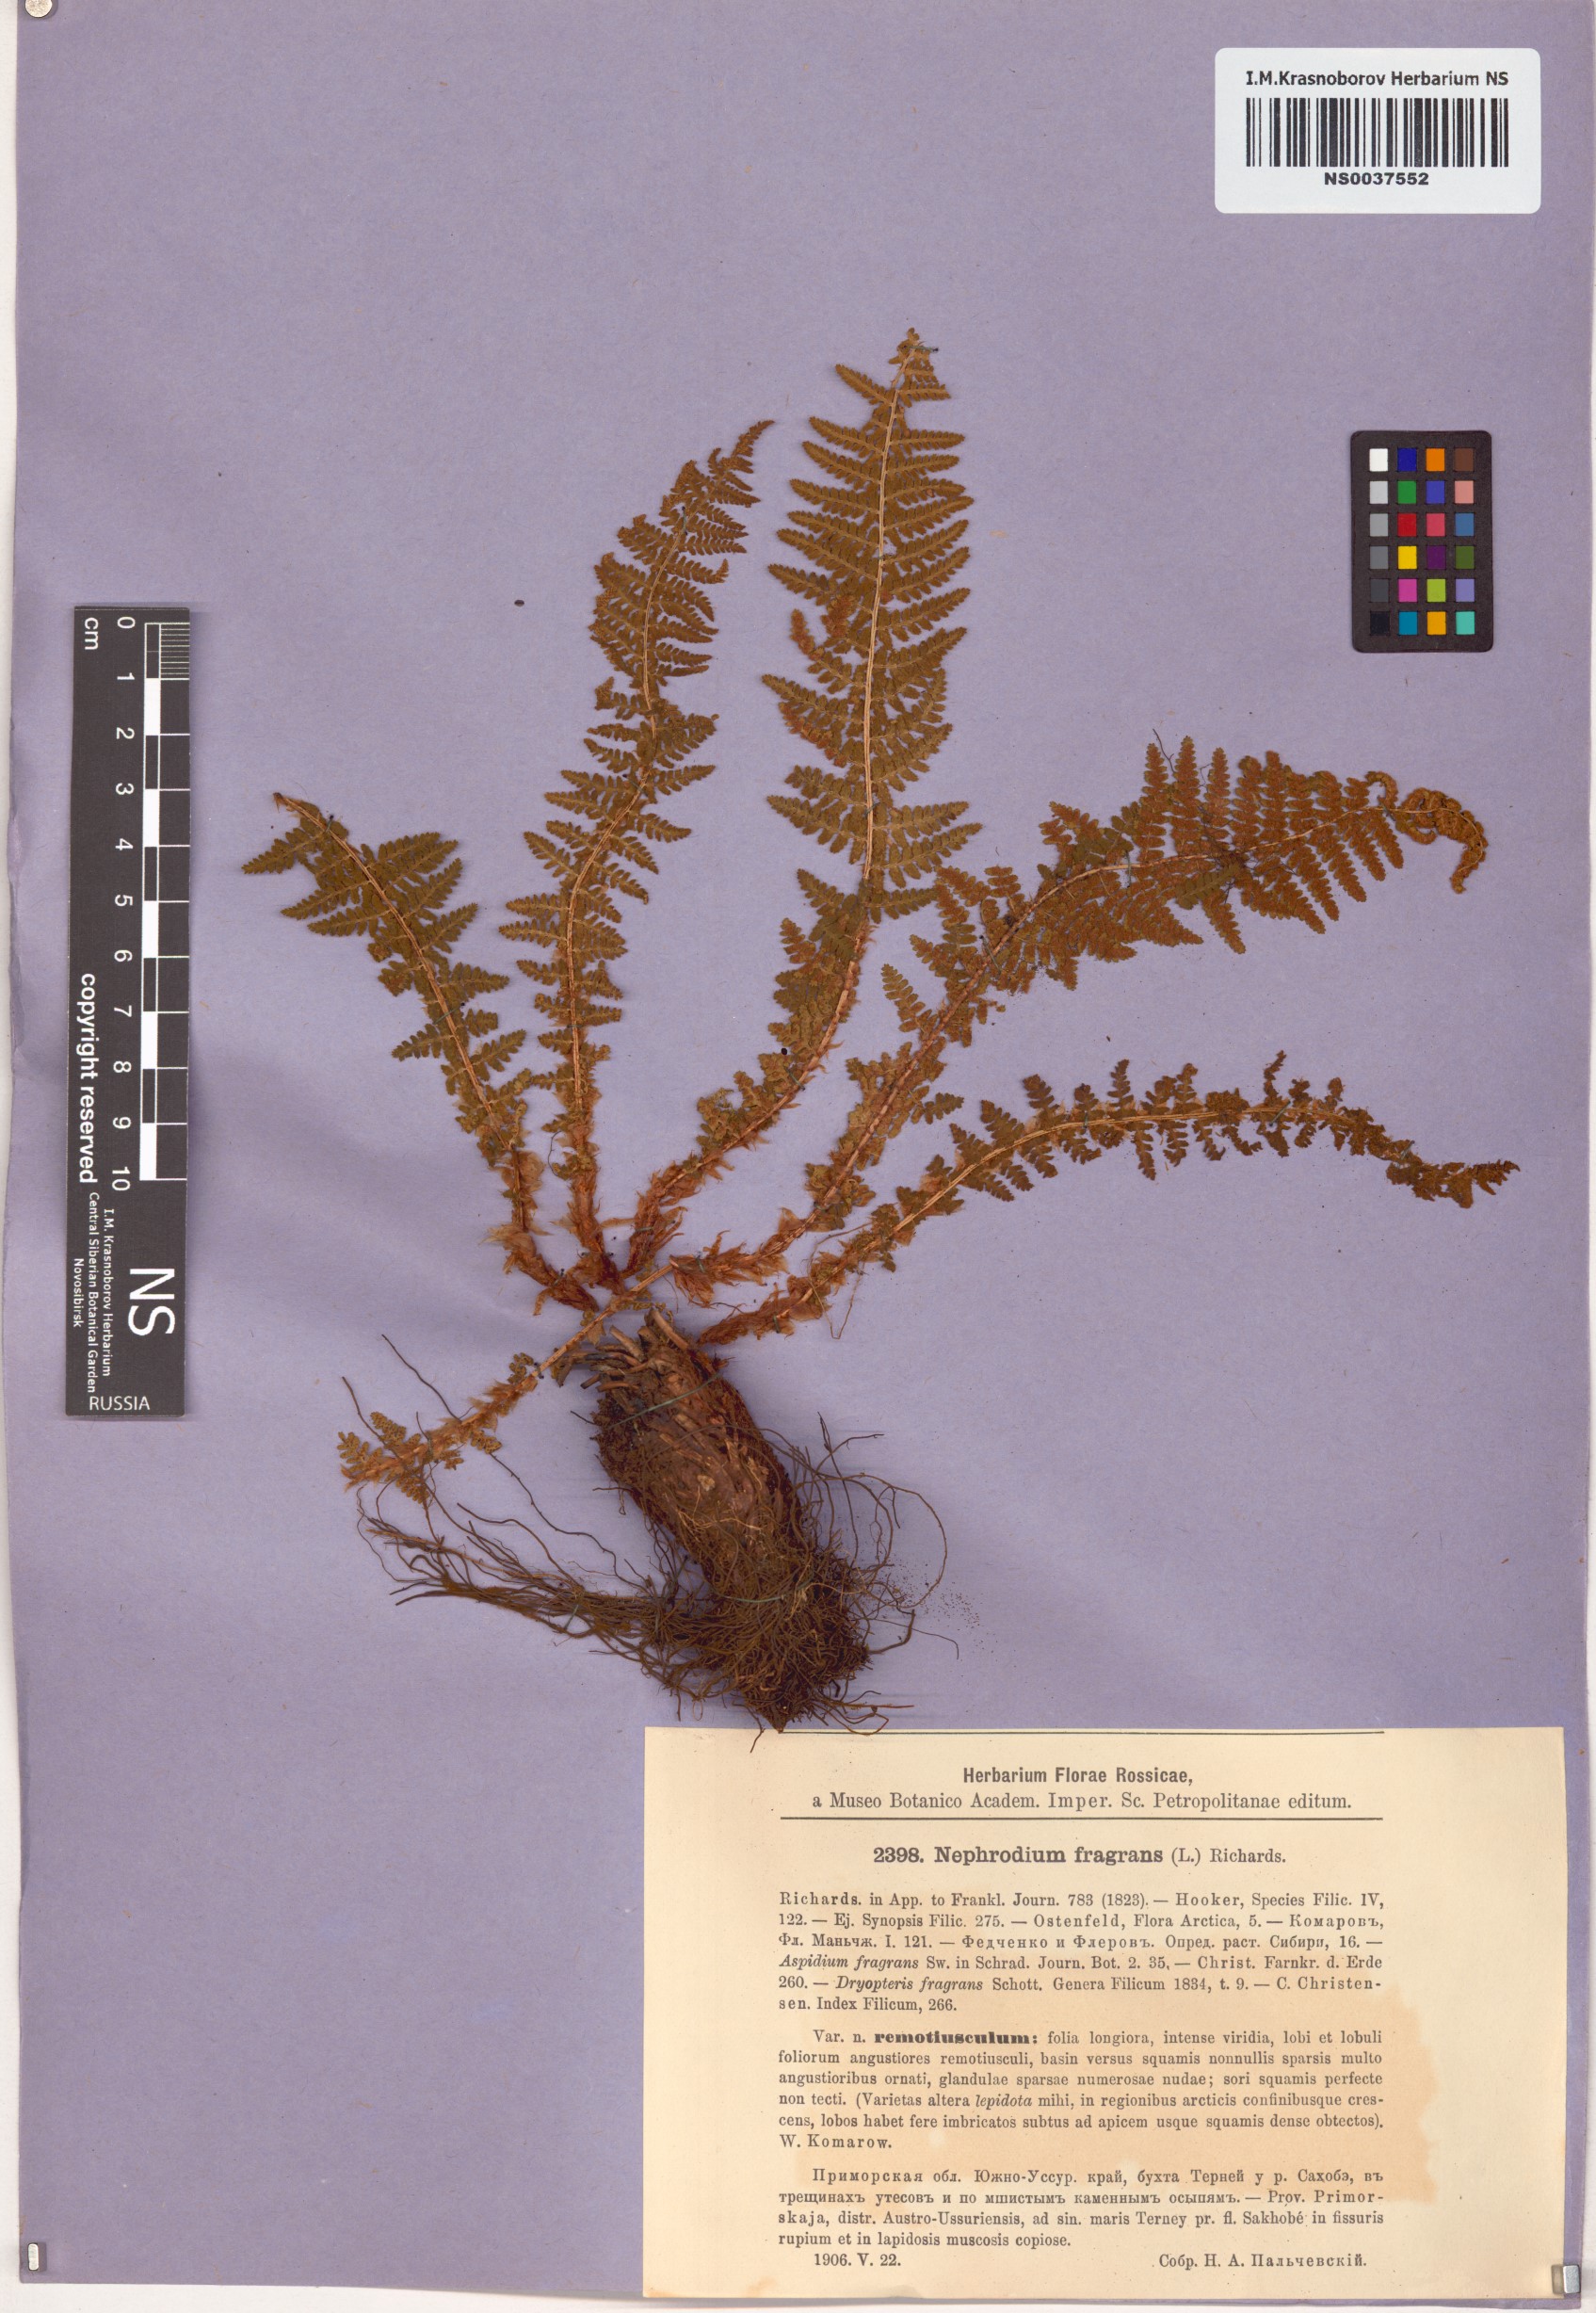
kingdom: Plantae
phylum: Tracheophyta
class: Polypodiopsida
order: Polypodiales
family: Dryopteridaceae
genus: Dryopteris
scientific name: Dryopteris fragrans
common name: Fragrant wood fern
